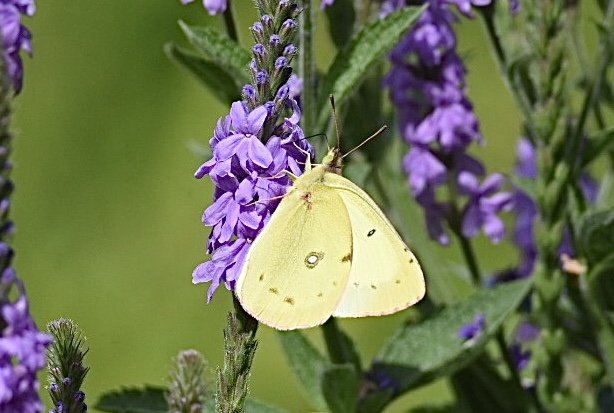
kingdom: Animalia
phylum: Arthropoda
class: Insecta
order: Lepidoptera
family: Pieridae
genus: Colias
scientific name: Colias philodice
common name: Clouded Sulphur
